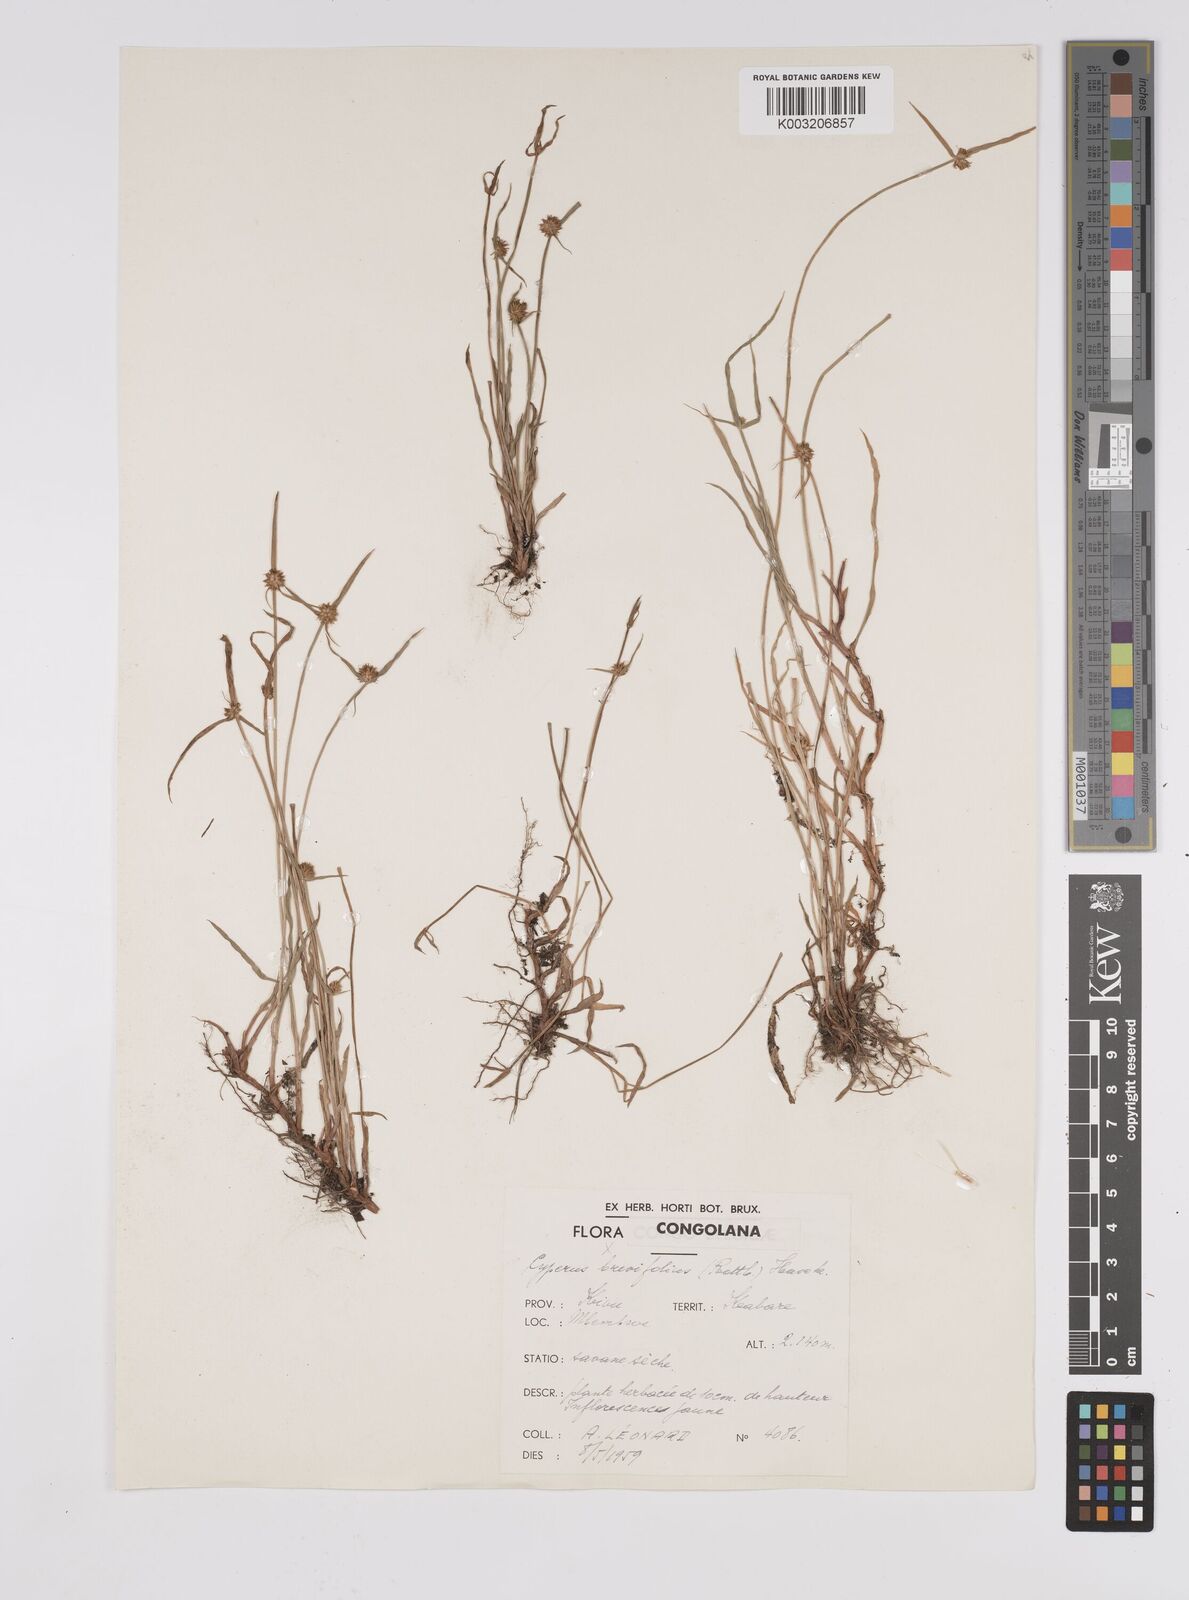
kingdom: Plantae
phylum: Tracheophyta
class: Liliopsida
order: Poales
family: Cyperaceae
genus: Cyperus
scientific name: Cyperus erectus
